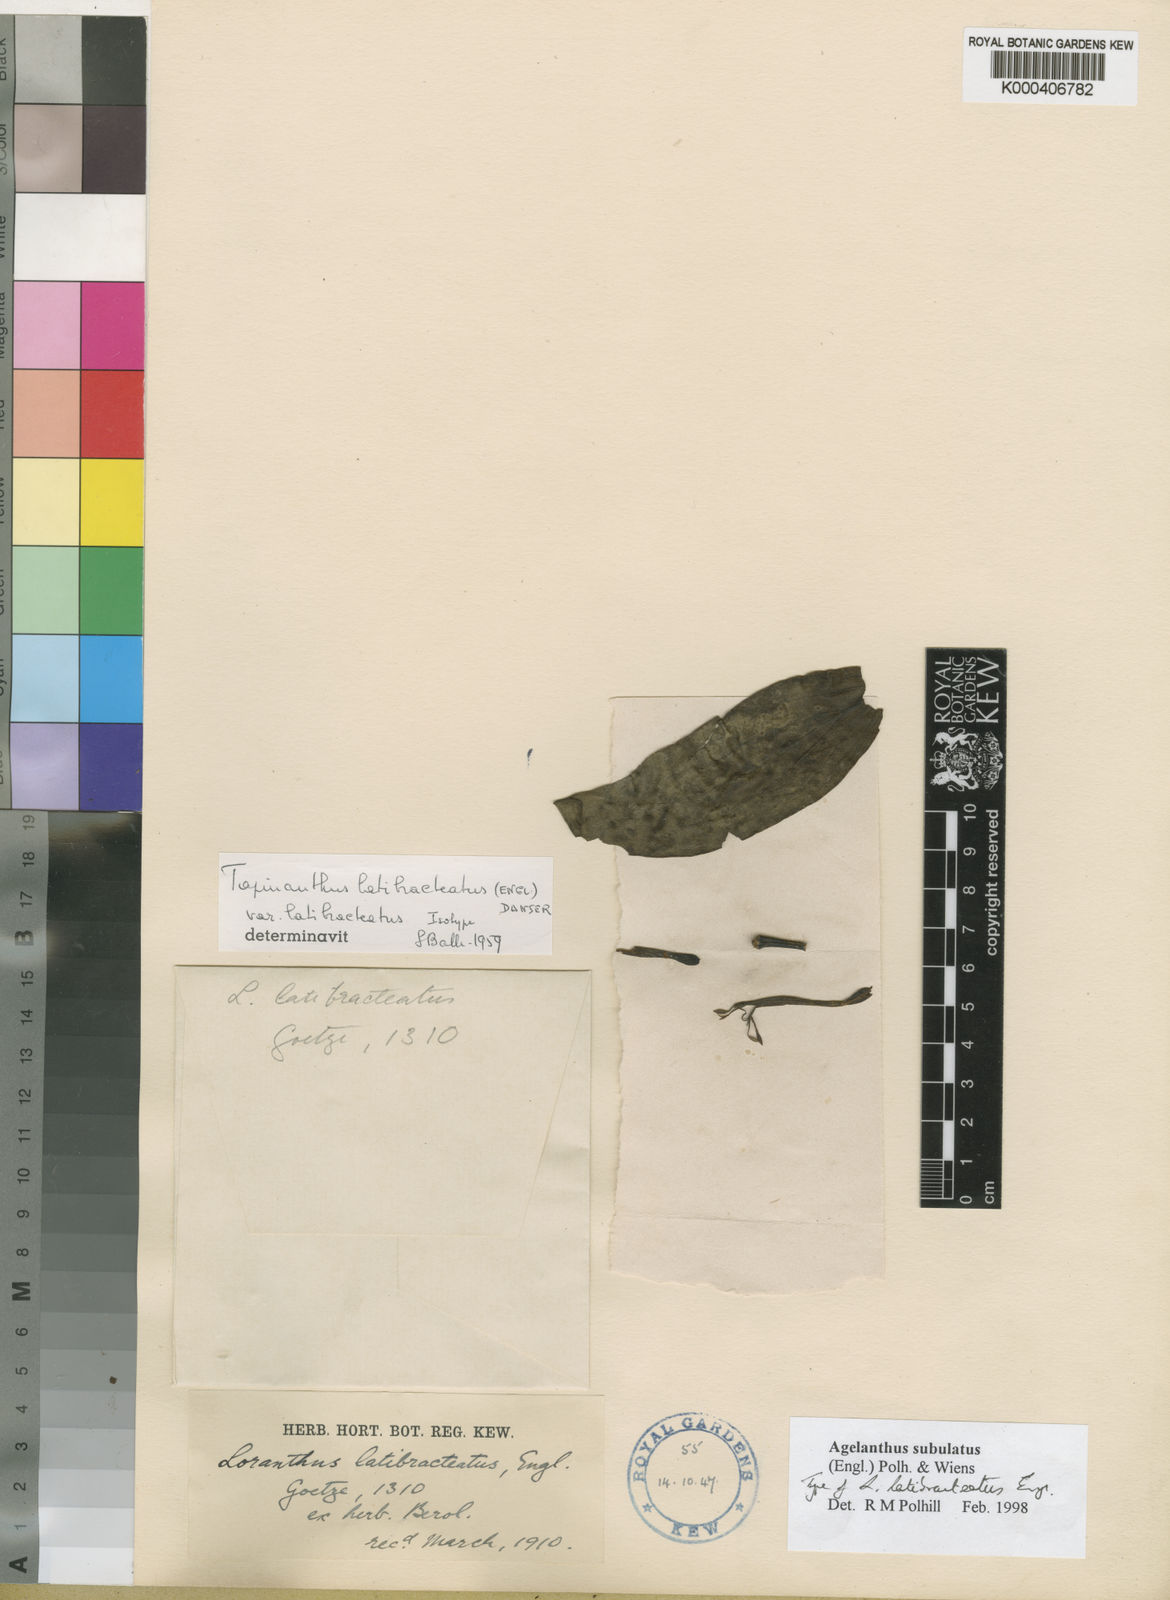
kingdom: Plantae
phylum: Tracheophyta
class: Magnoliopsida
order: Santalales
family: Loranthaceae
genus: Agelanthus
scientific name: Agelanthus subulatus
